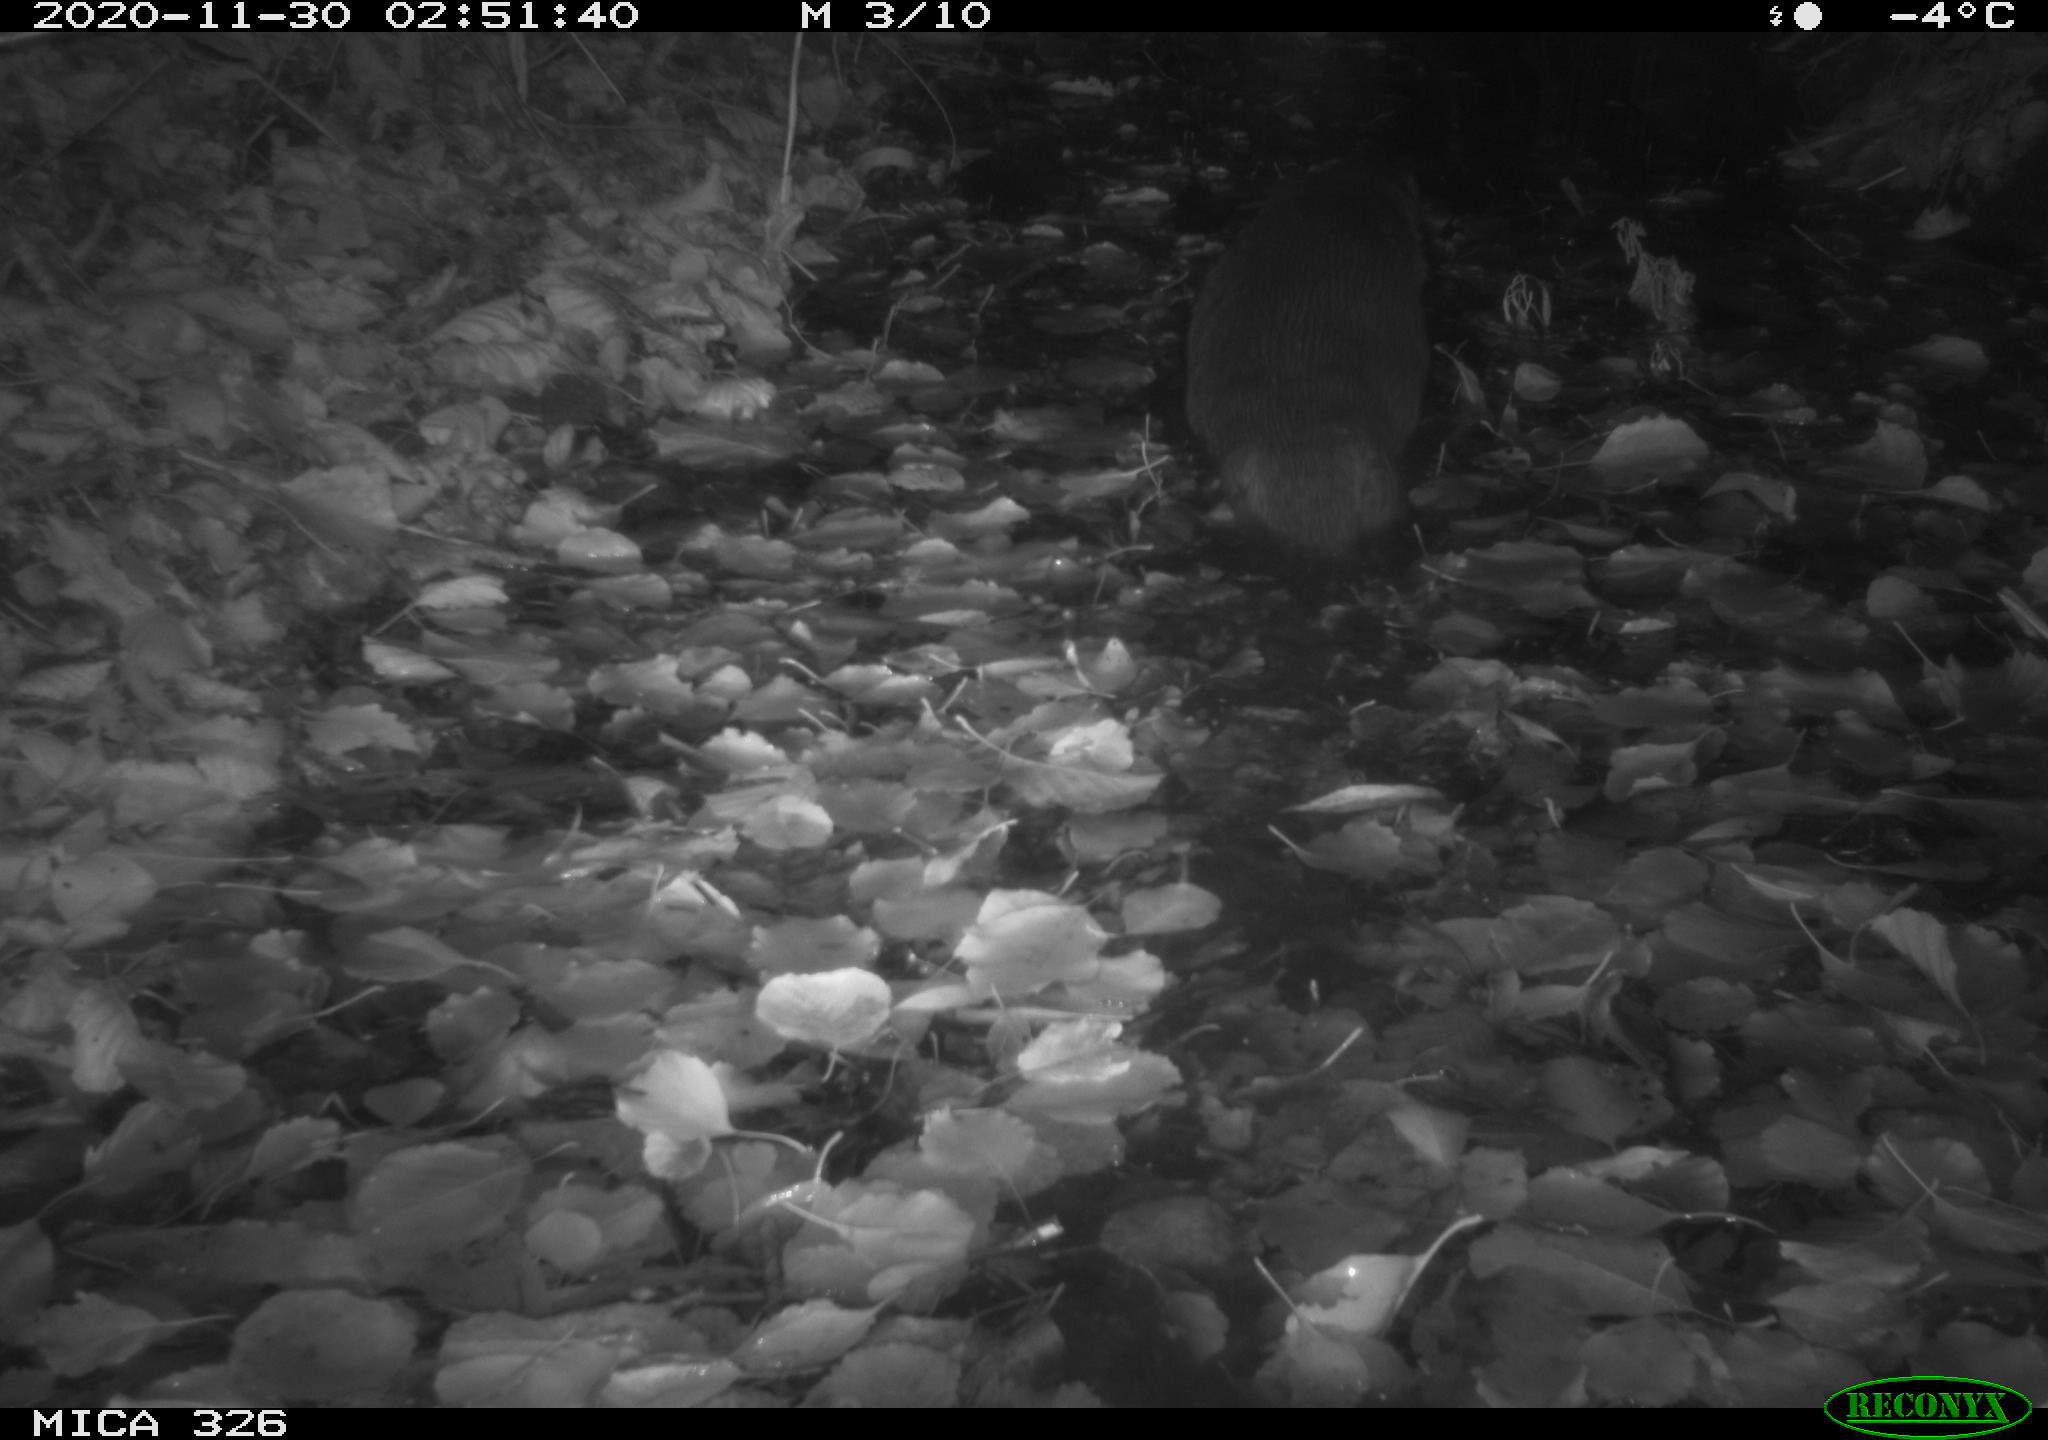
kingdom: Animalia
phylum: Chordata
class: Mammalia
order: Carnivora
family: Mustelidae
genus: Lutra
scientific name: Lutra lutra
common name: European otter
